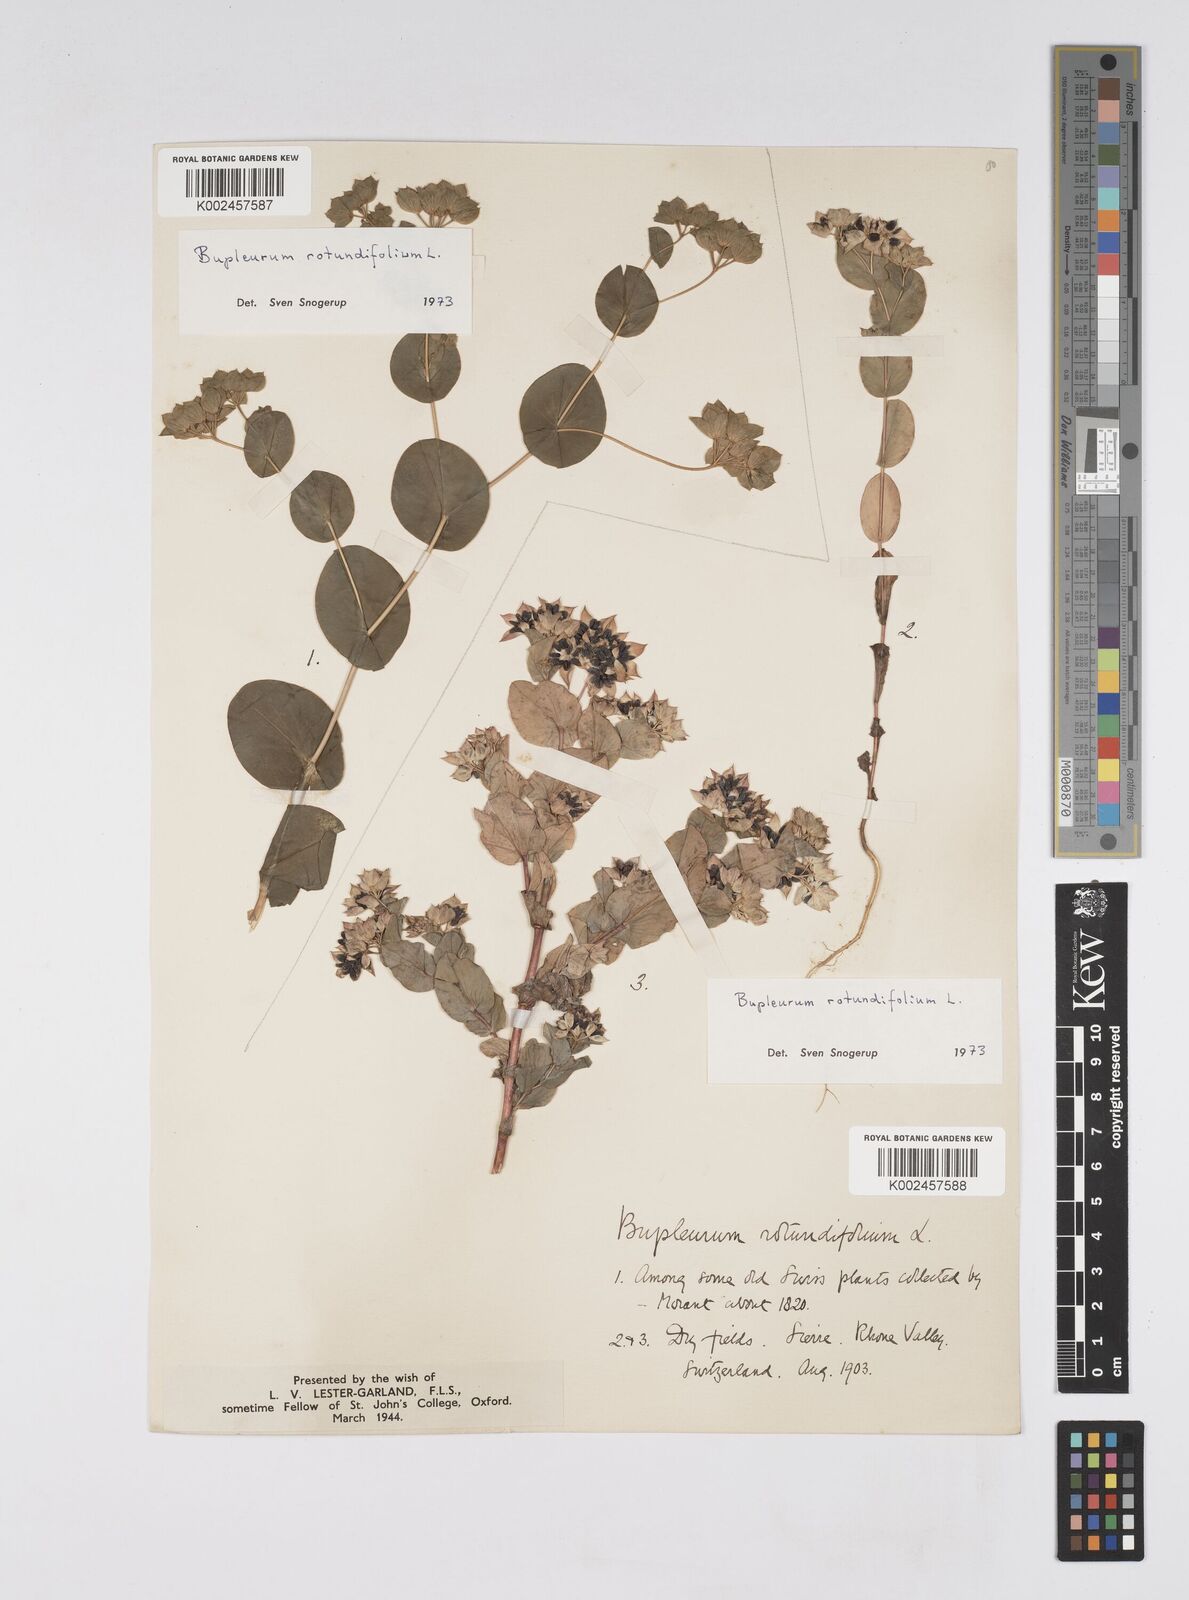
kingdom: Plantae
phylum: Tracheophyta
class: Magnoliopsida
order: Apiales
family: Apiaceae
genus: Bupleurum
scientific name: Bupleurum rotundifolium
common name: Thorow-wax
